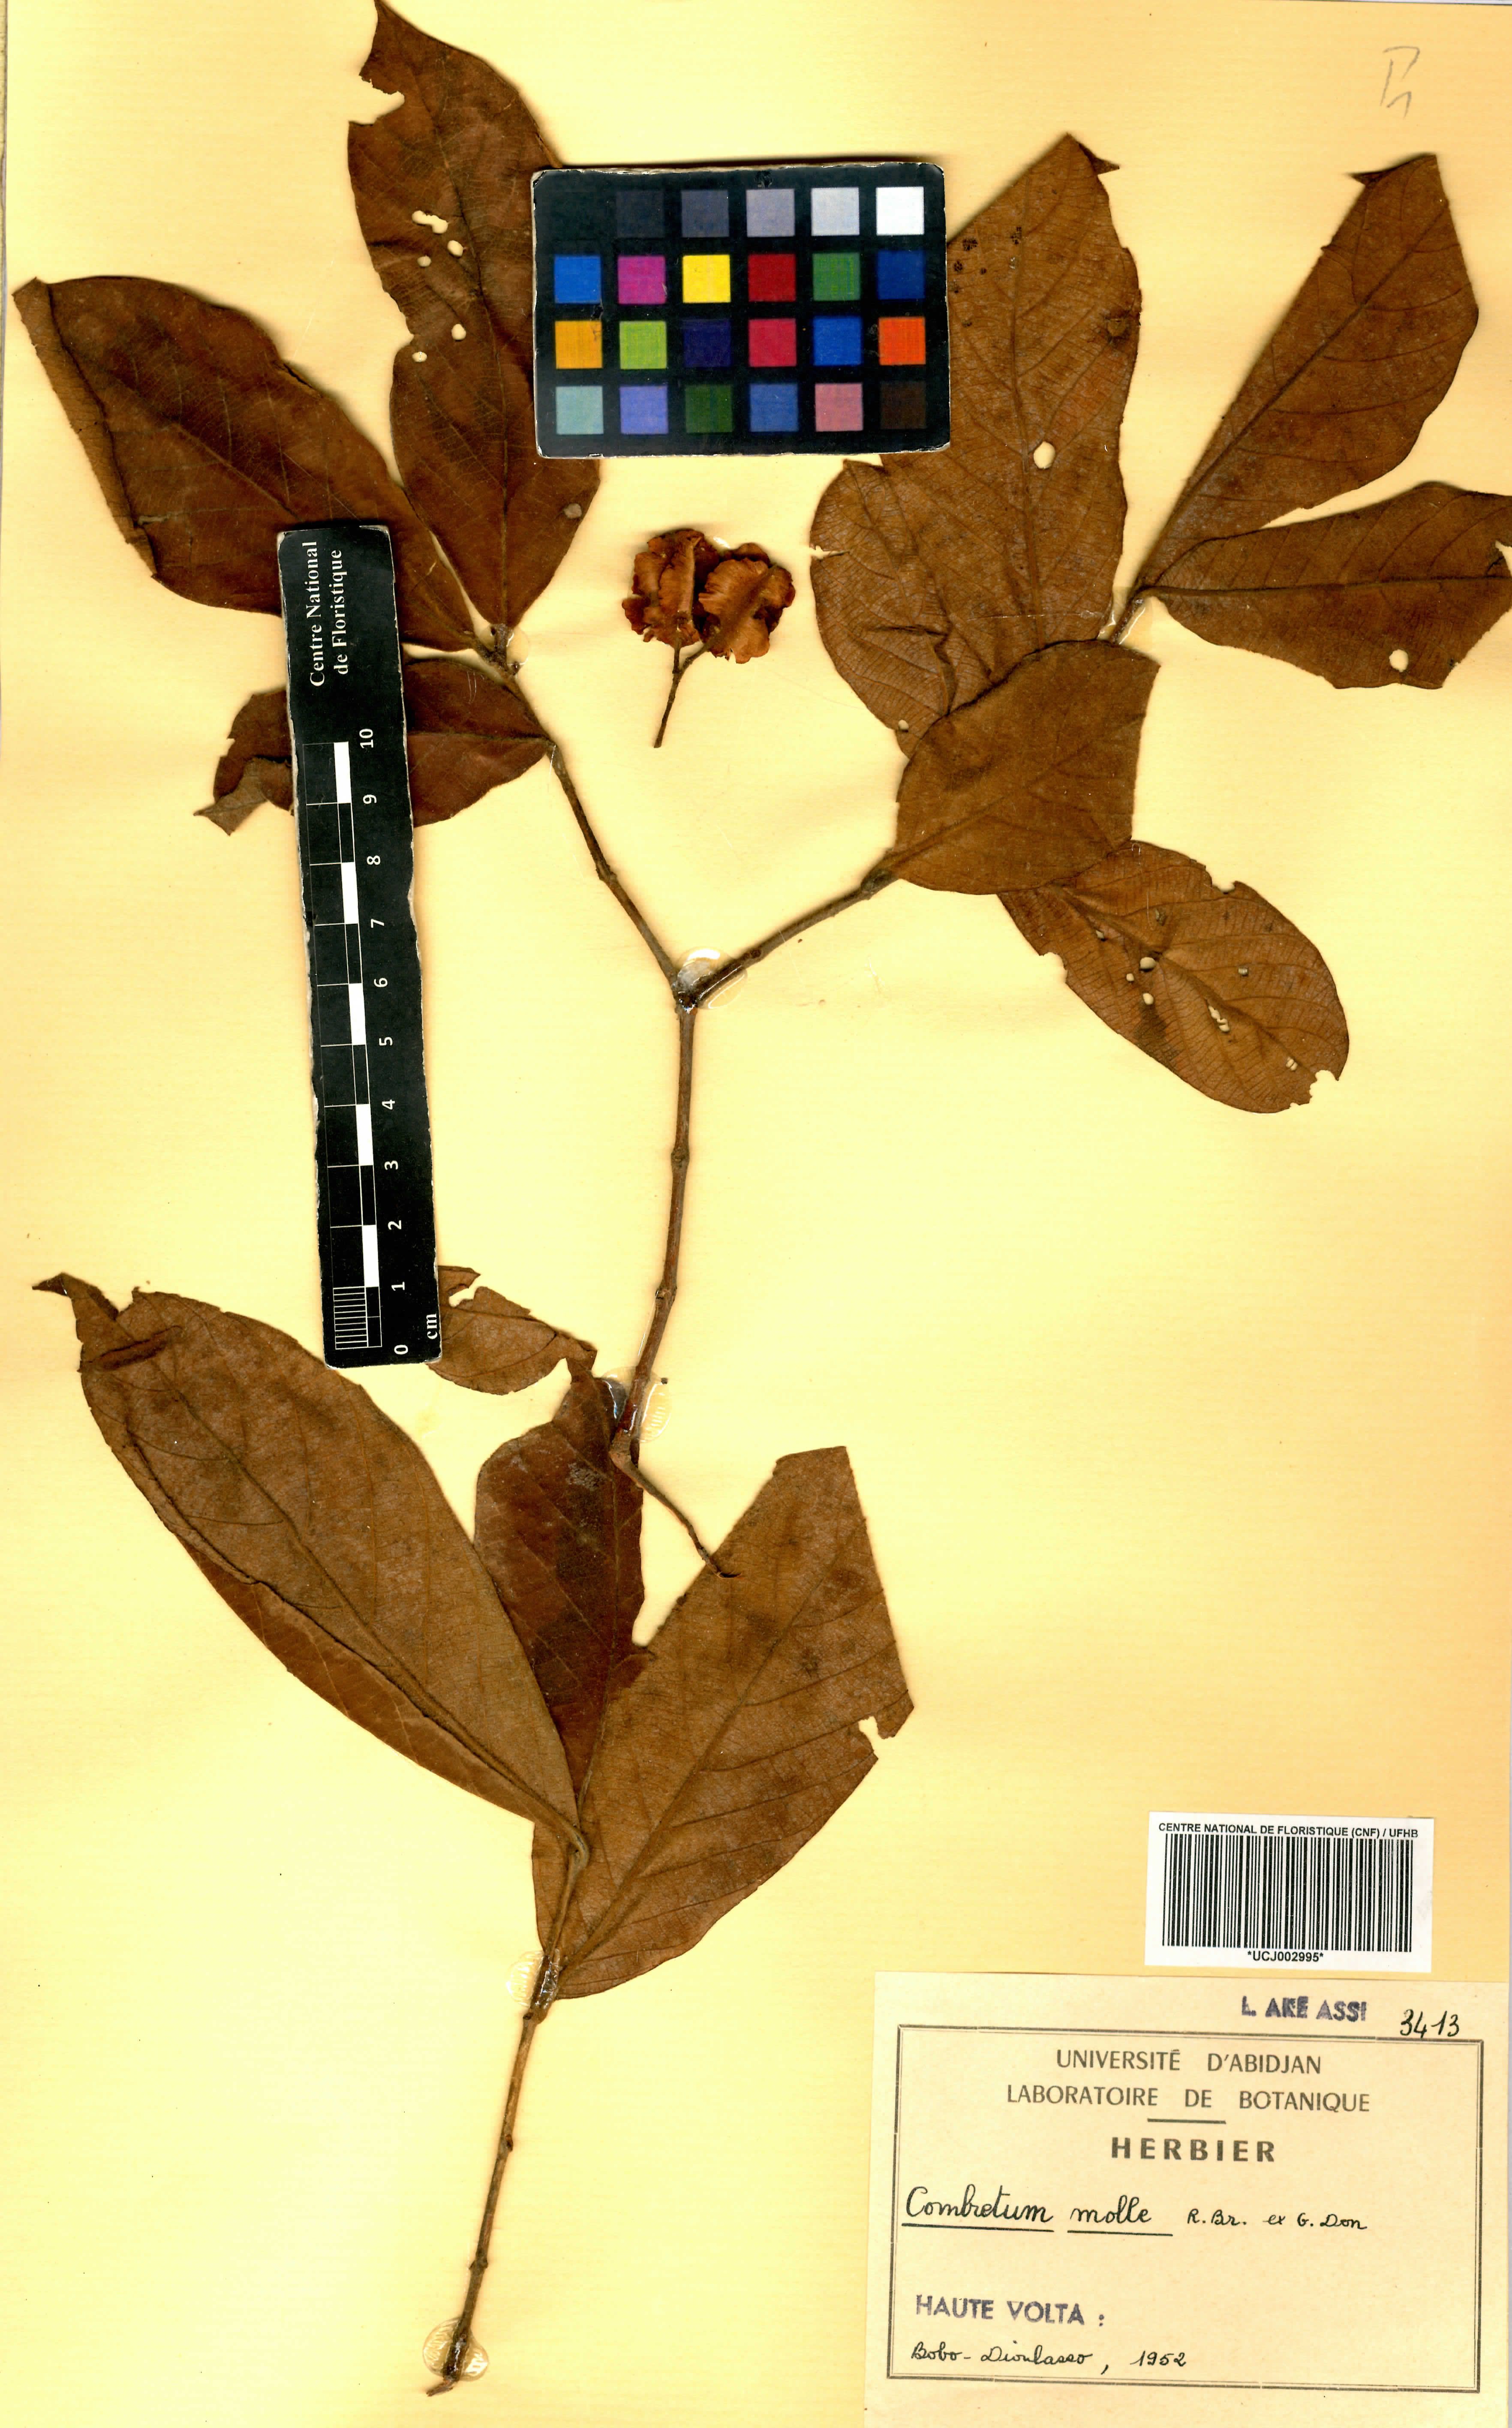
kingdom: Plantae
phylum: Tracheophyta
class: Magnoliopsida
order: Myrtales
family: Combretaceae
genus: Combretum
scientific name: Combretum molle
